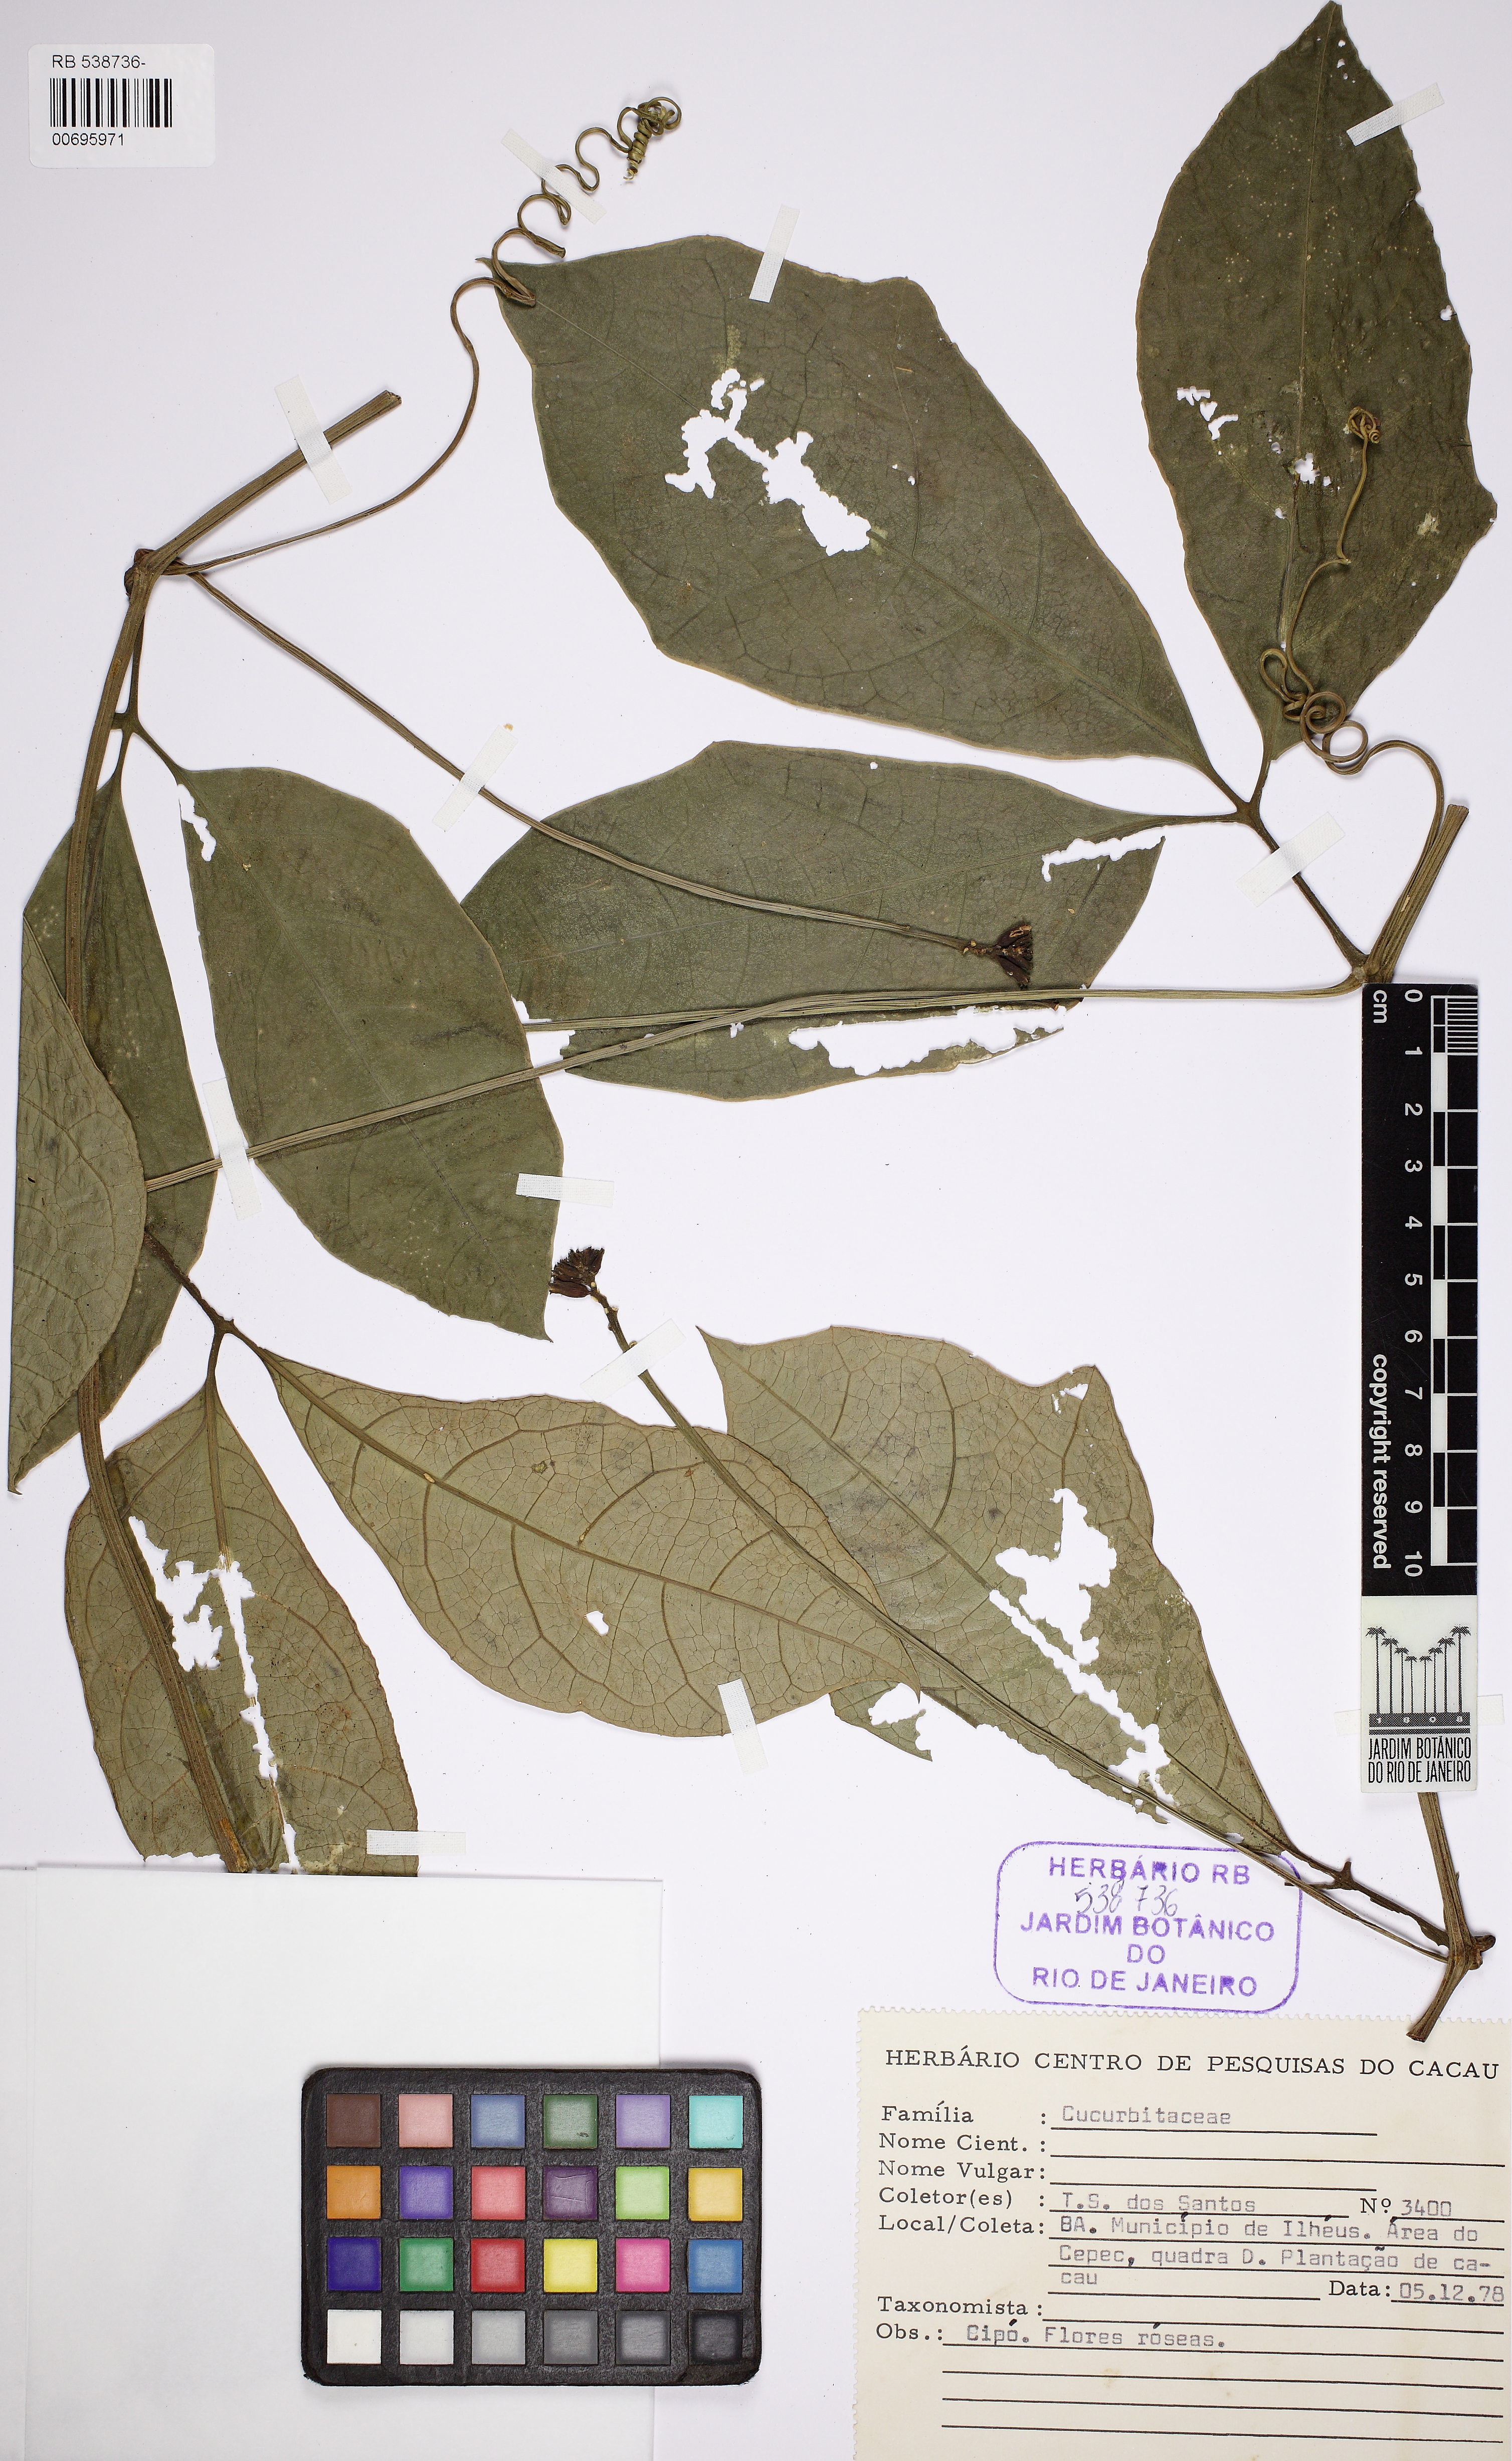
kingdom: Plantae
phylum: Tracheophyta
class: Magnoliopsida
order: Cucurbitales
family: Cucurbitaceae
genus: Psiguria
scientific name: Psiguria
